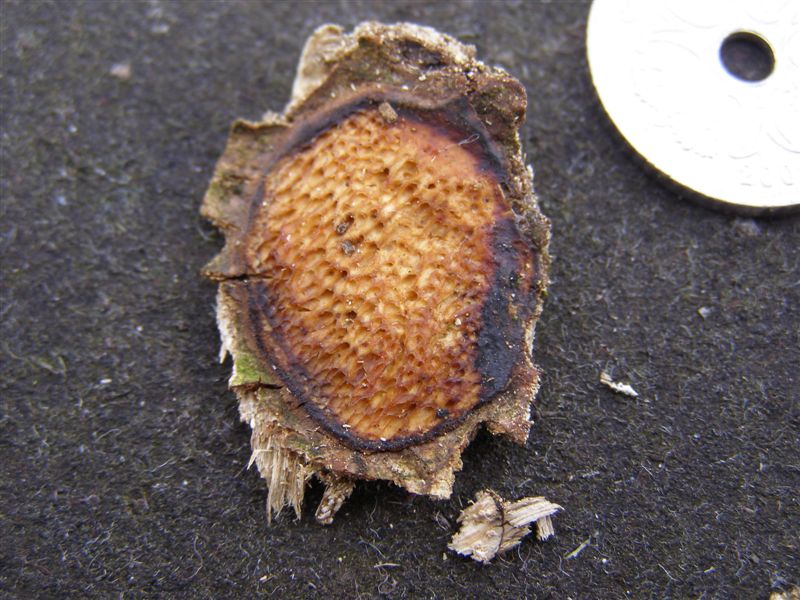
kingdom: Fungi
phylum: Basidiomycota
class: Agaricomycetes
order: Polyporales
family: Polyporaceae
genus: Szczepkamyces
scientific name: Szczepkamyces campestris
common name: hasselporesvamp
